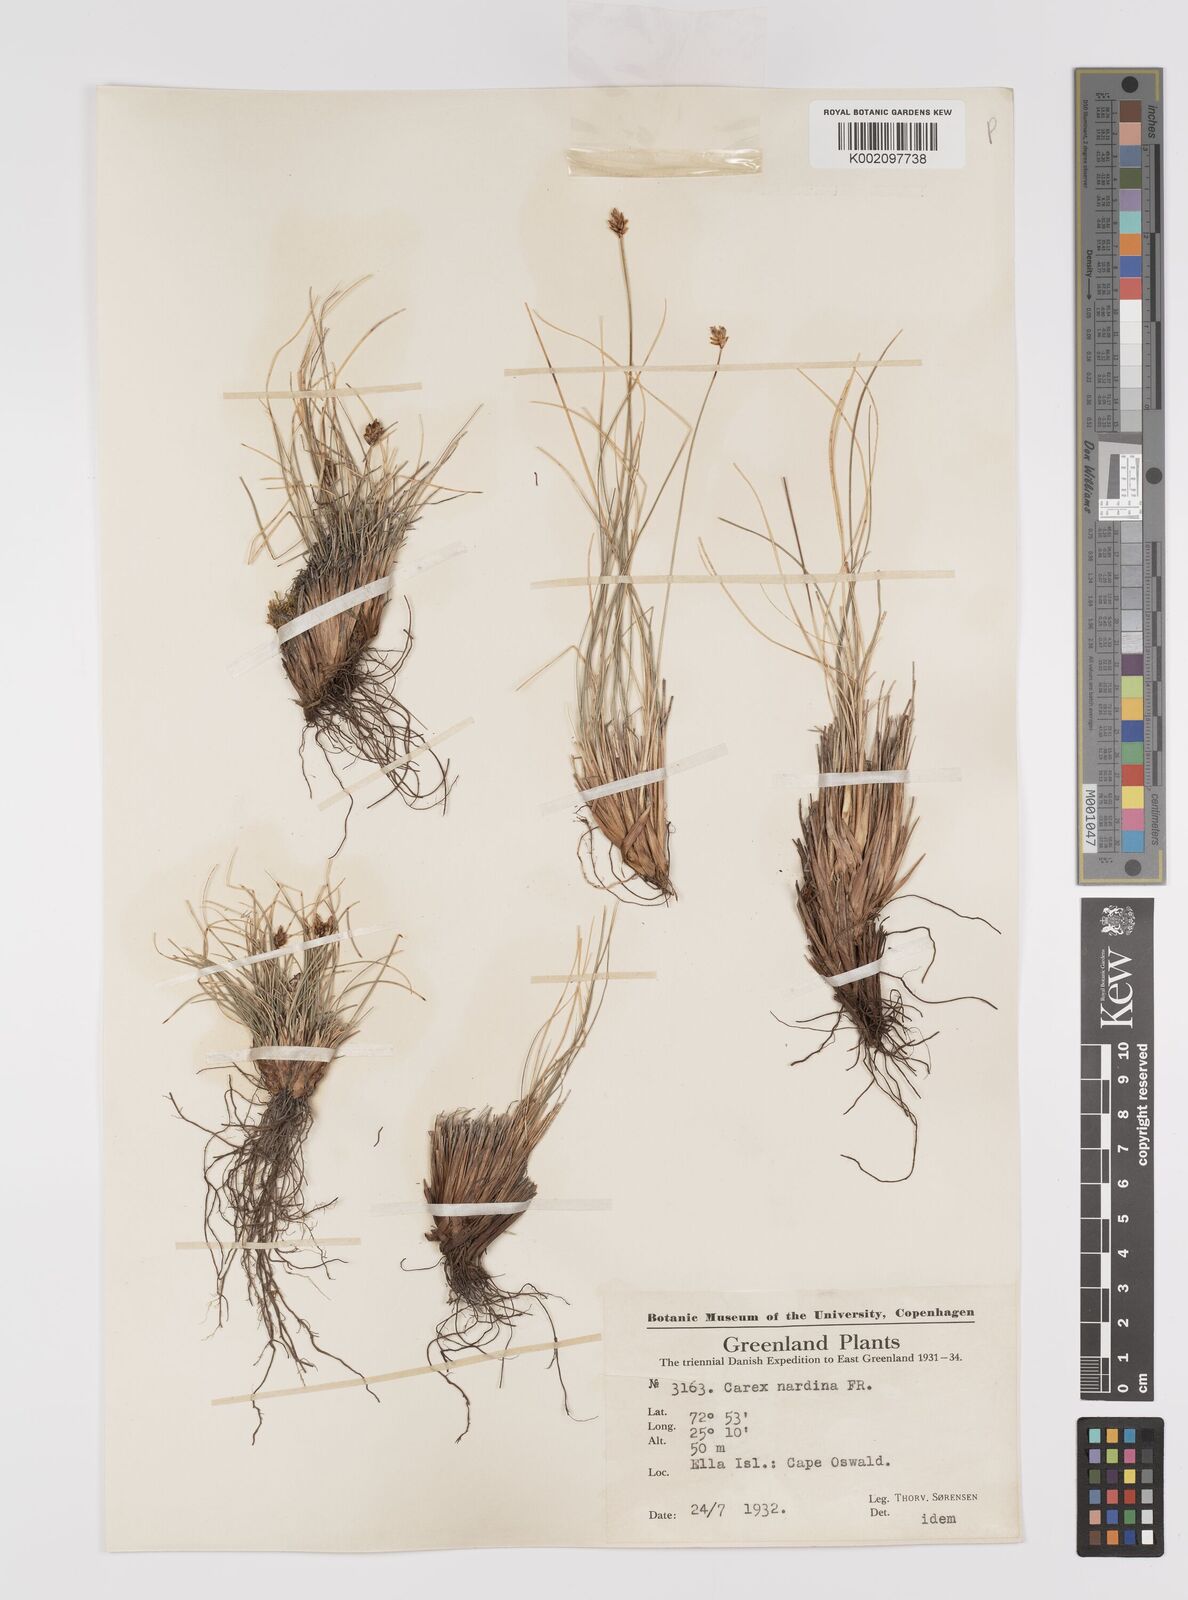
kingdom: Plantae
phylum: Tracheophyta
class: Liliopsida
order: Poales
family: Cyperaceae
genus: Carex
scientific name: Carex nardina
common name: Nard sedge
